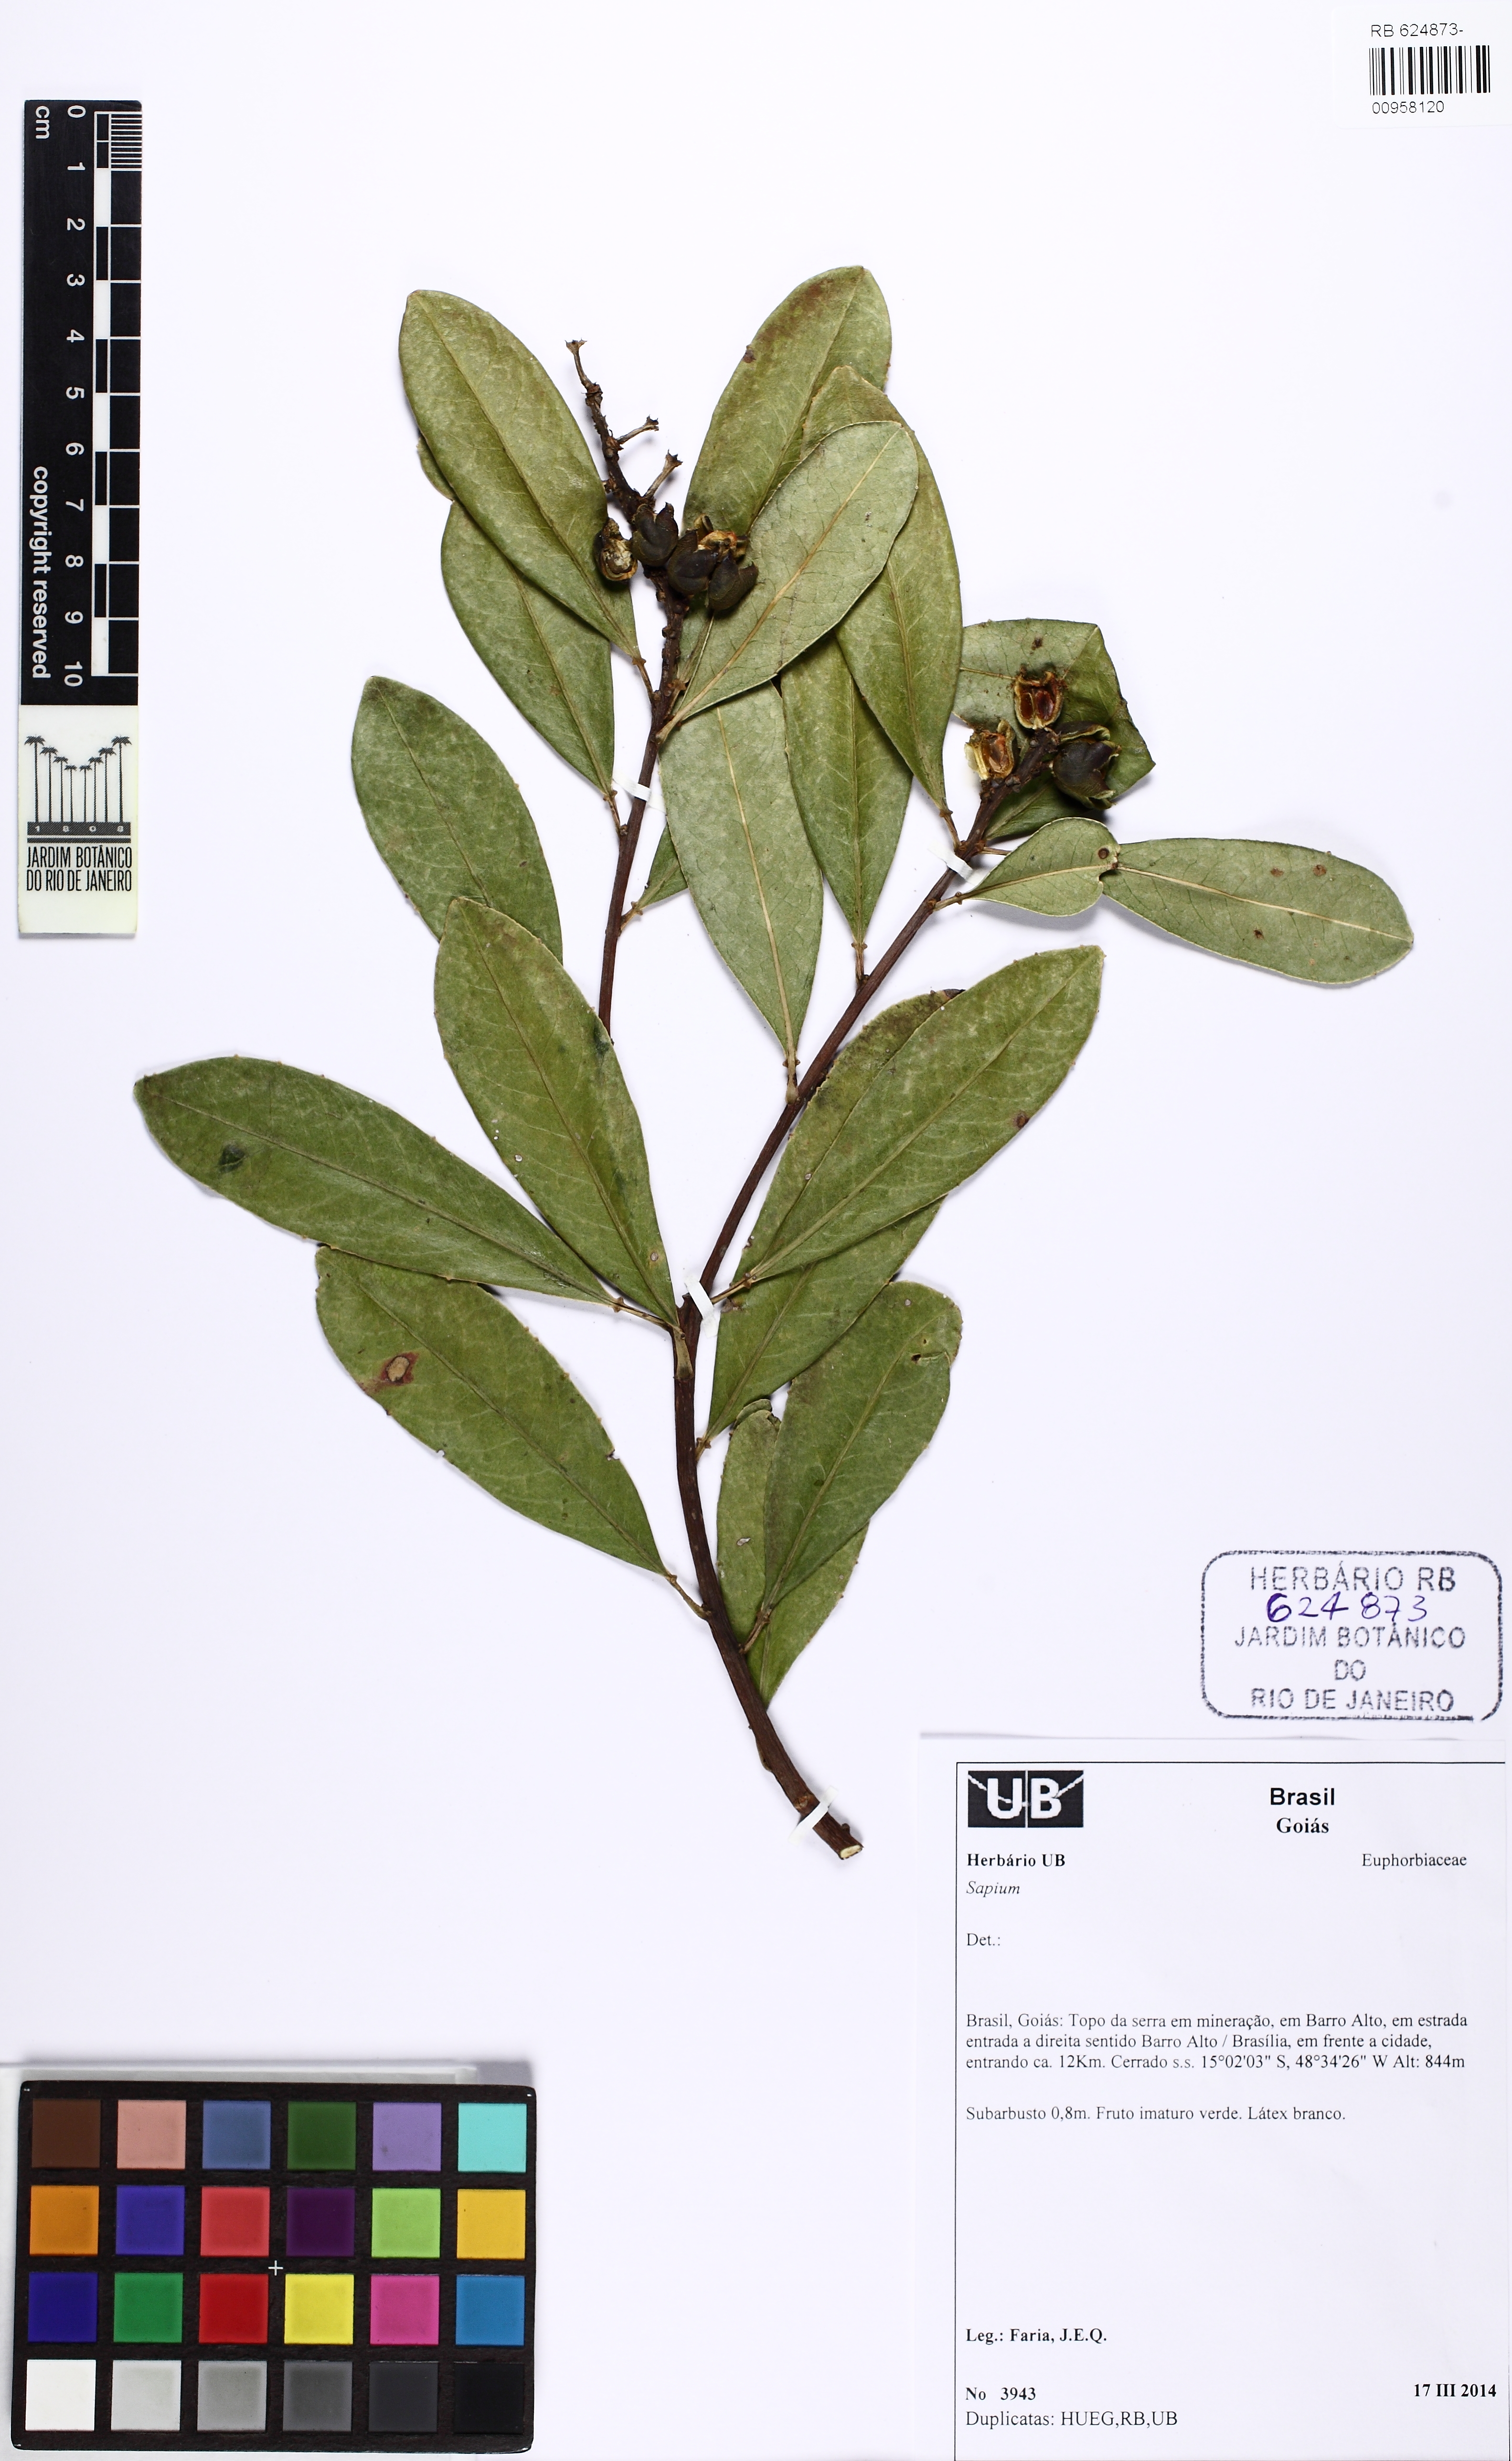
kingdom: Plantae
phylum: Tracheophyta
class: Magnoliopsida
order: Malpighiales
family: Euphorbiaceae
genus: Sapium
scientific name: Sapium
